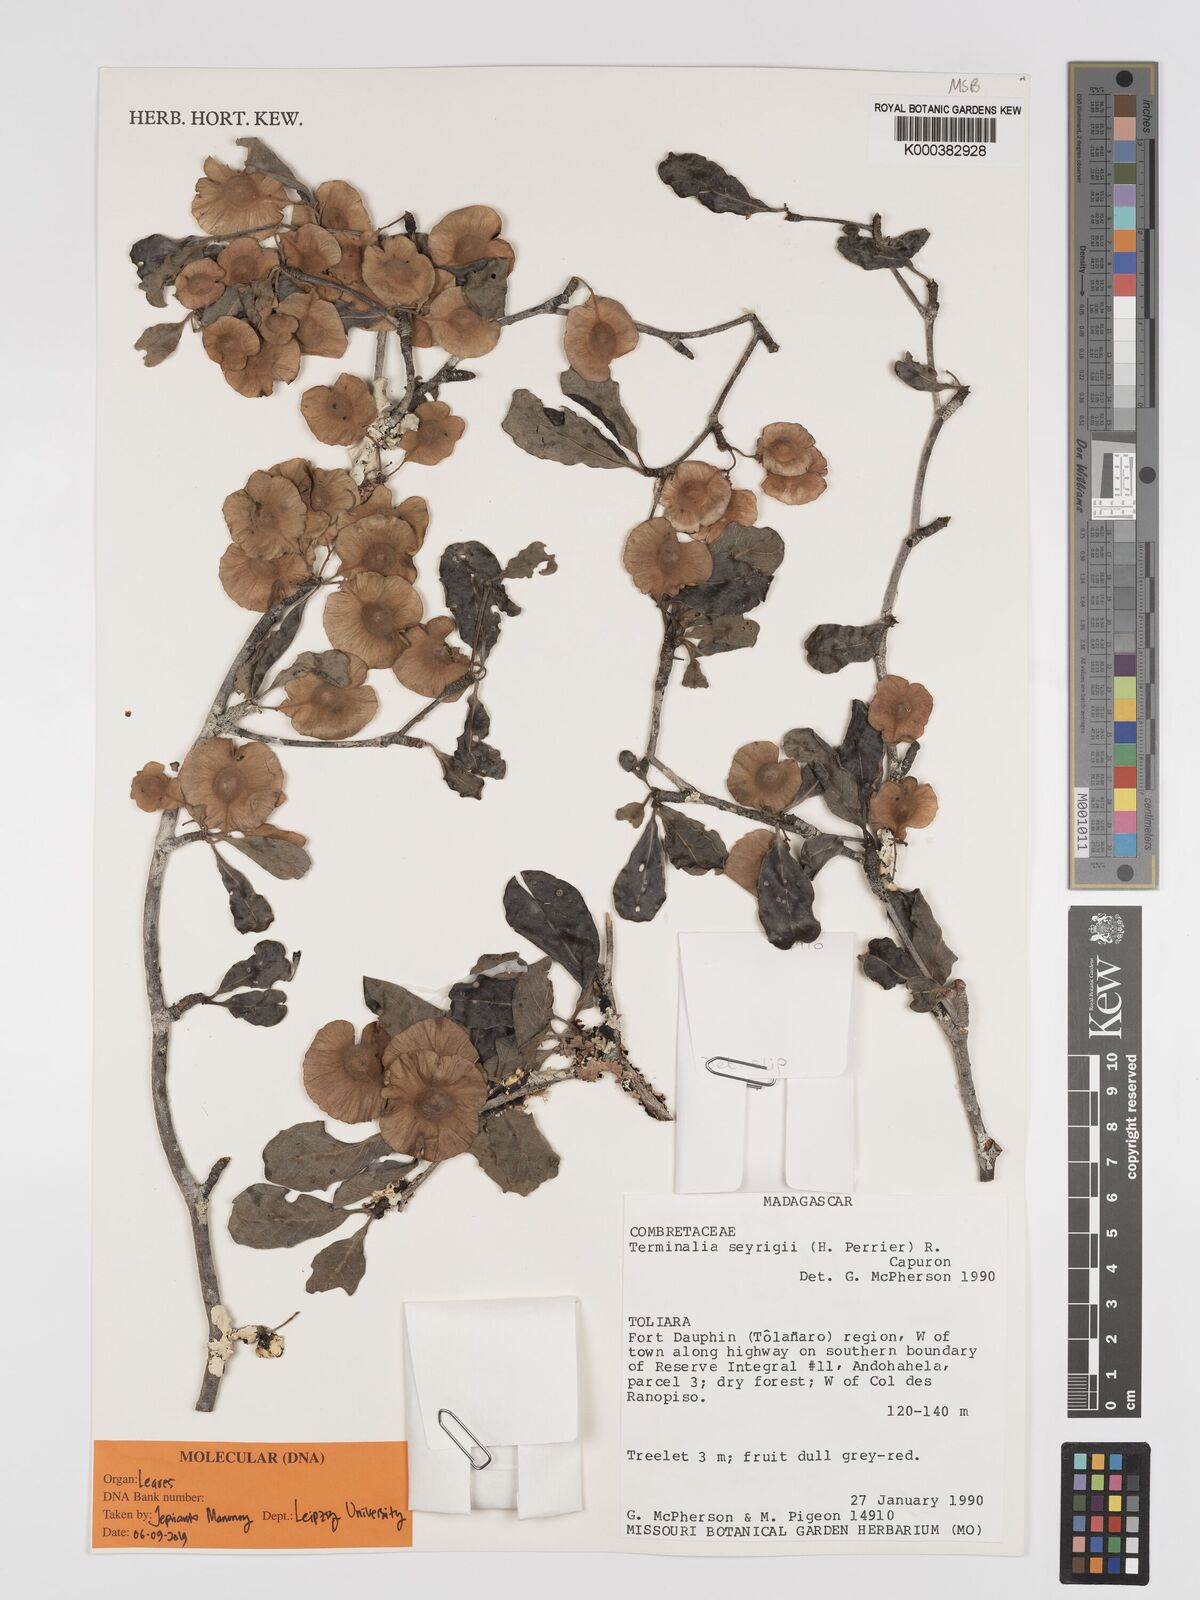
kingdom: Plantae
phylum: Tracheophyta
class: Magnoliopsida
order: Myrtales
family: Combretaceae
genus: Terminalia
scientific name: Terminalia seyrigii
